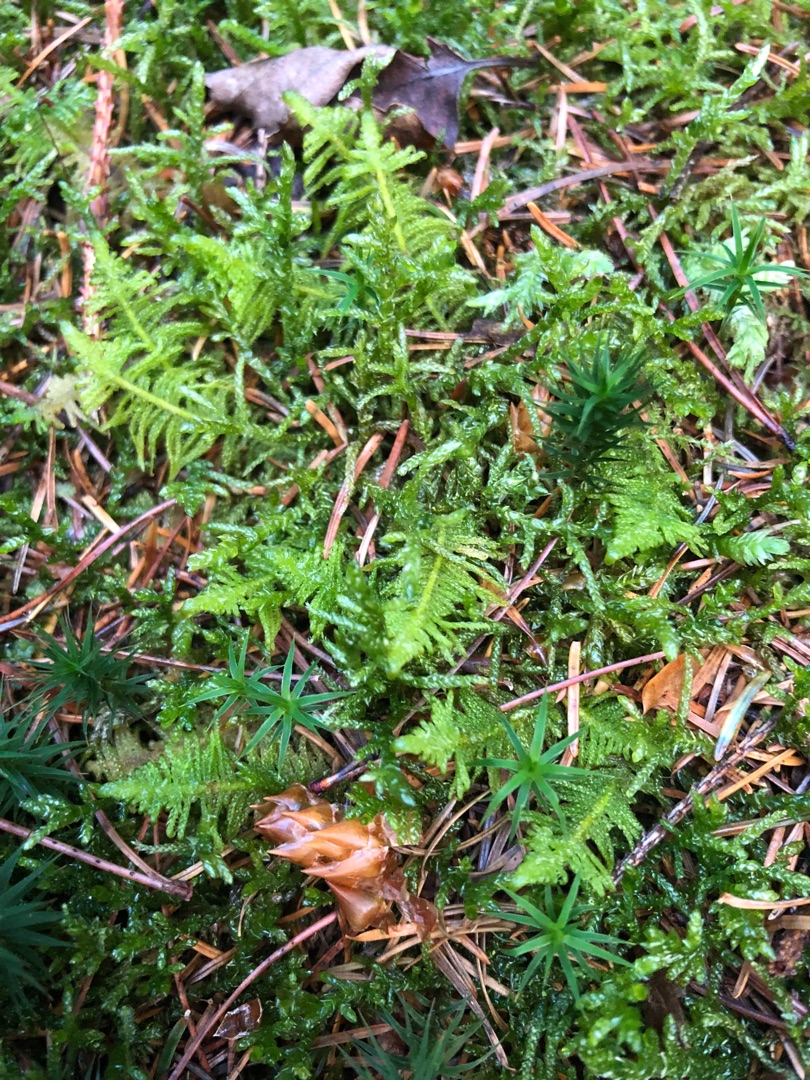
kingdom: Plantae
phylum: Bryophyta
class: Bryopsida
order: Hypnales
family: Pylaisiaceae
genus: Ptilium
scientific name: Ptilium crista-castrensis
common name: Fjer-kammos
